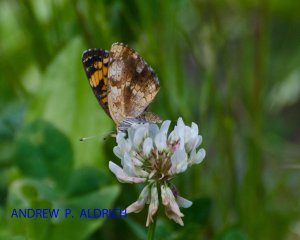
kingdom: Animalia
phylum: Arthropoda
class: Insecta
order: Lepidoptera
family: Nymphalidae
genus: Phyciodes
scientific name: Phyciodes tharos
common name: Pearl Crescent
